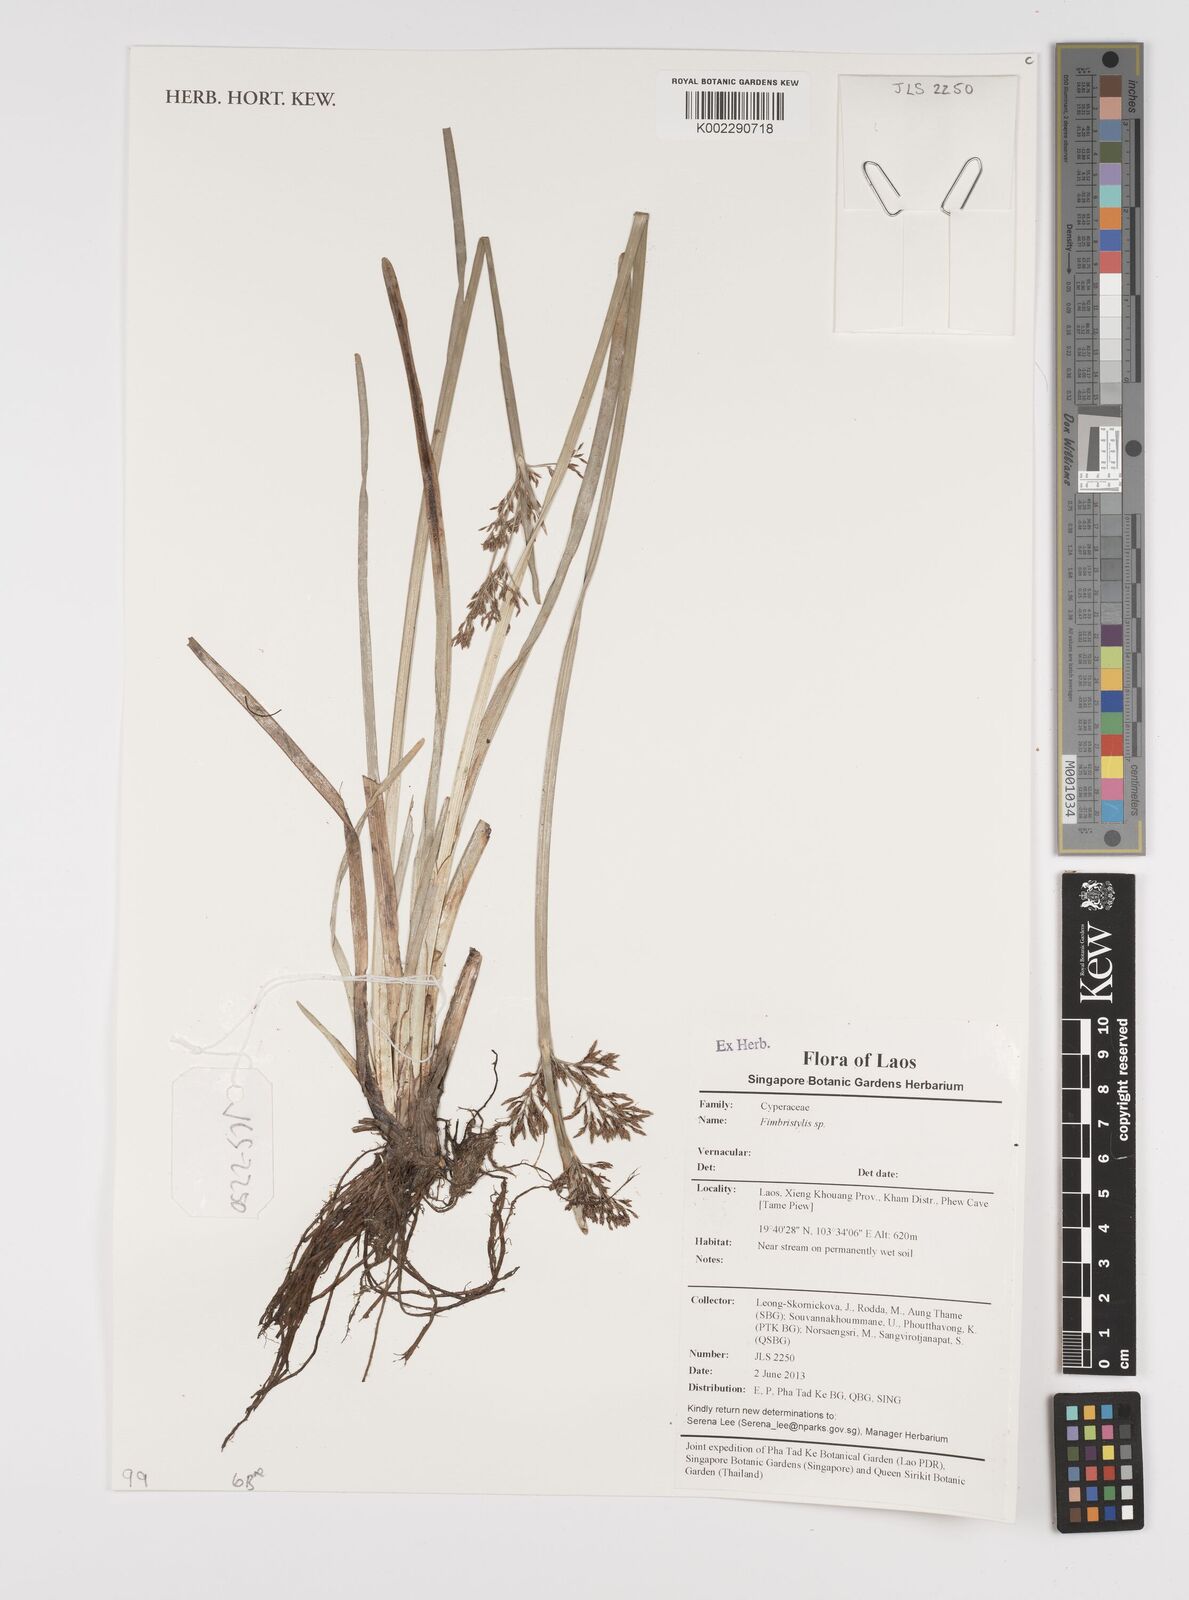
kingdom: Plantae
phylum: Tracheophyta
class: Liliopsida
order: Poales
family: Cyperaceae
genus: Fimbristylis
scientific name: Fimbristylis
